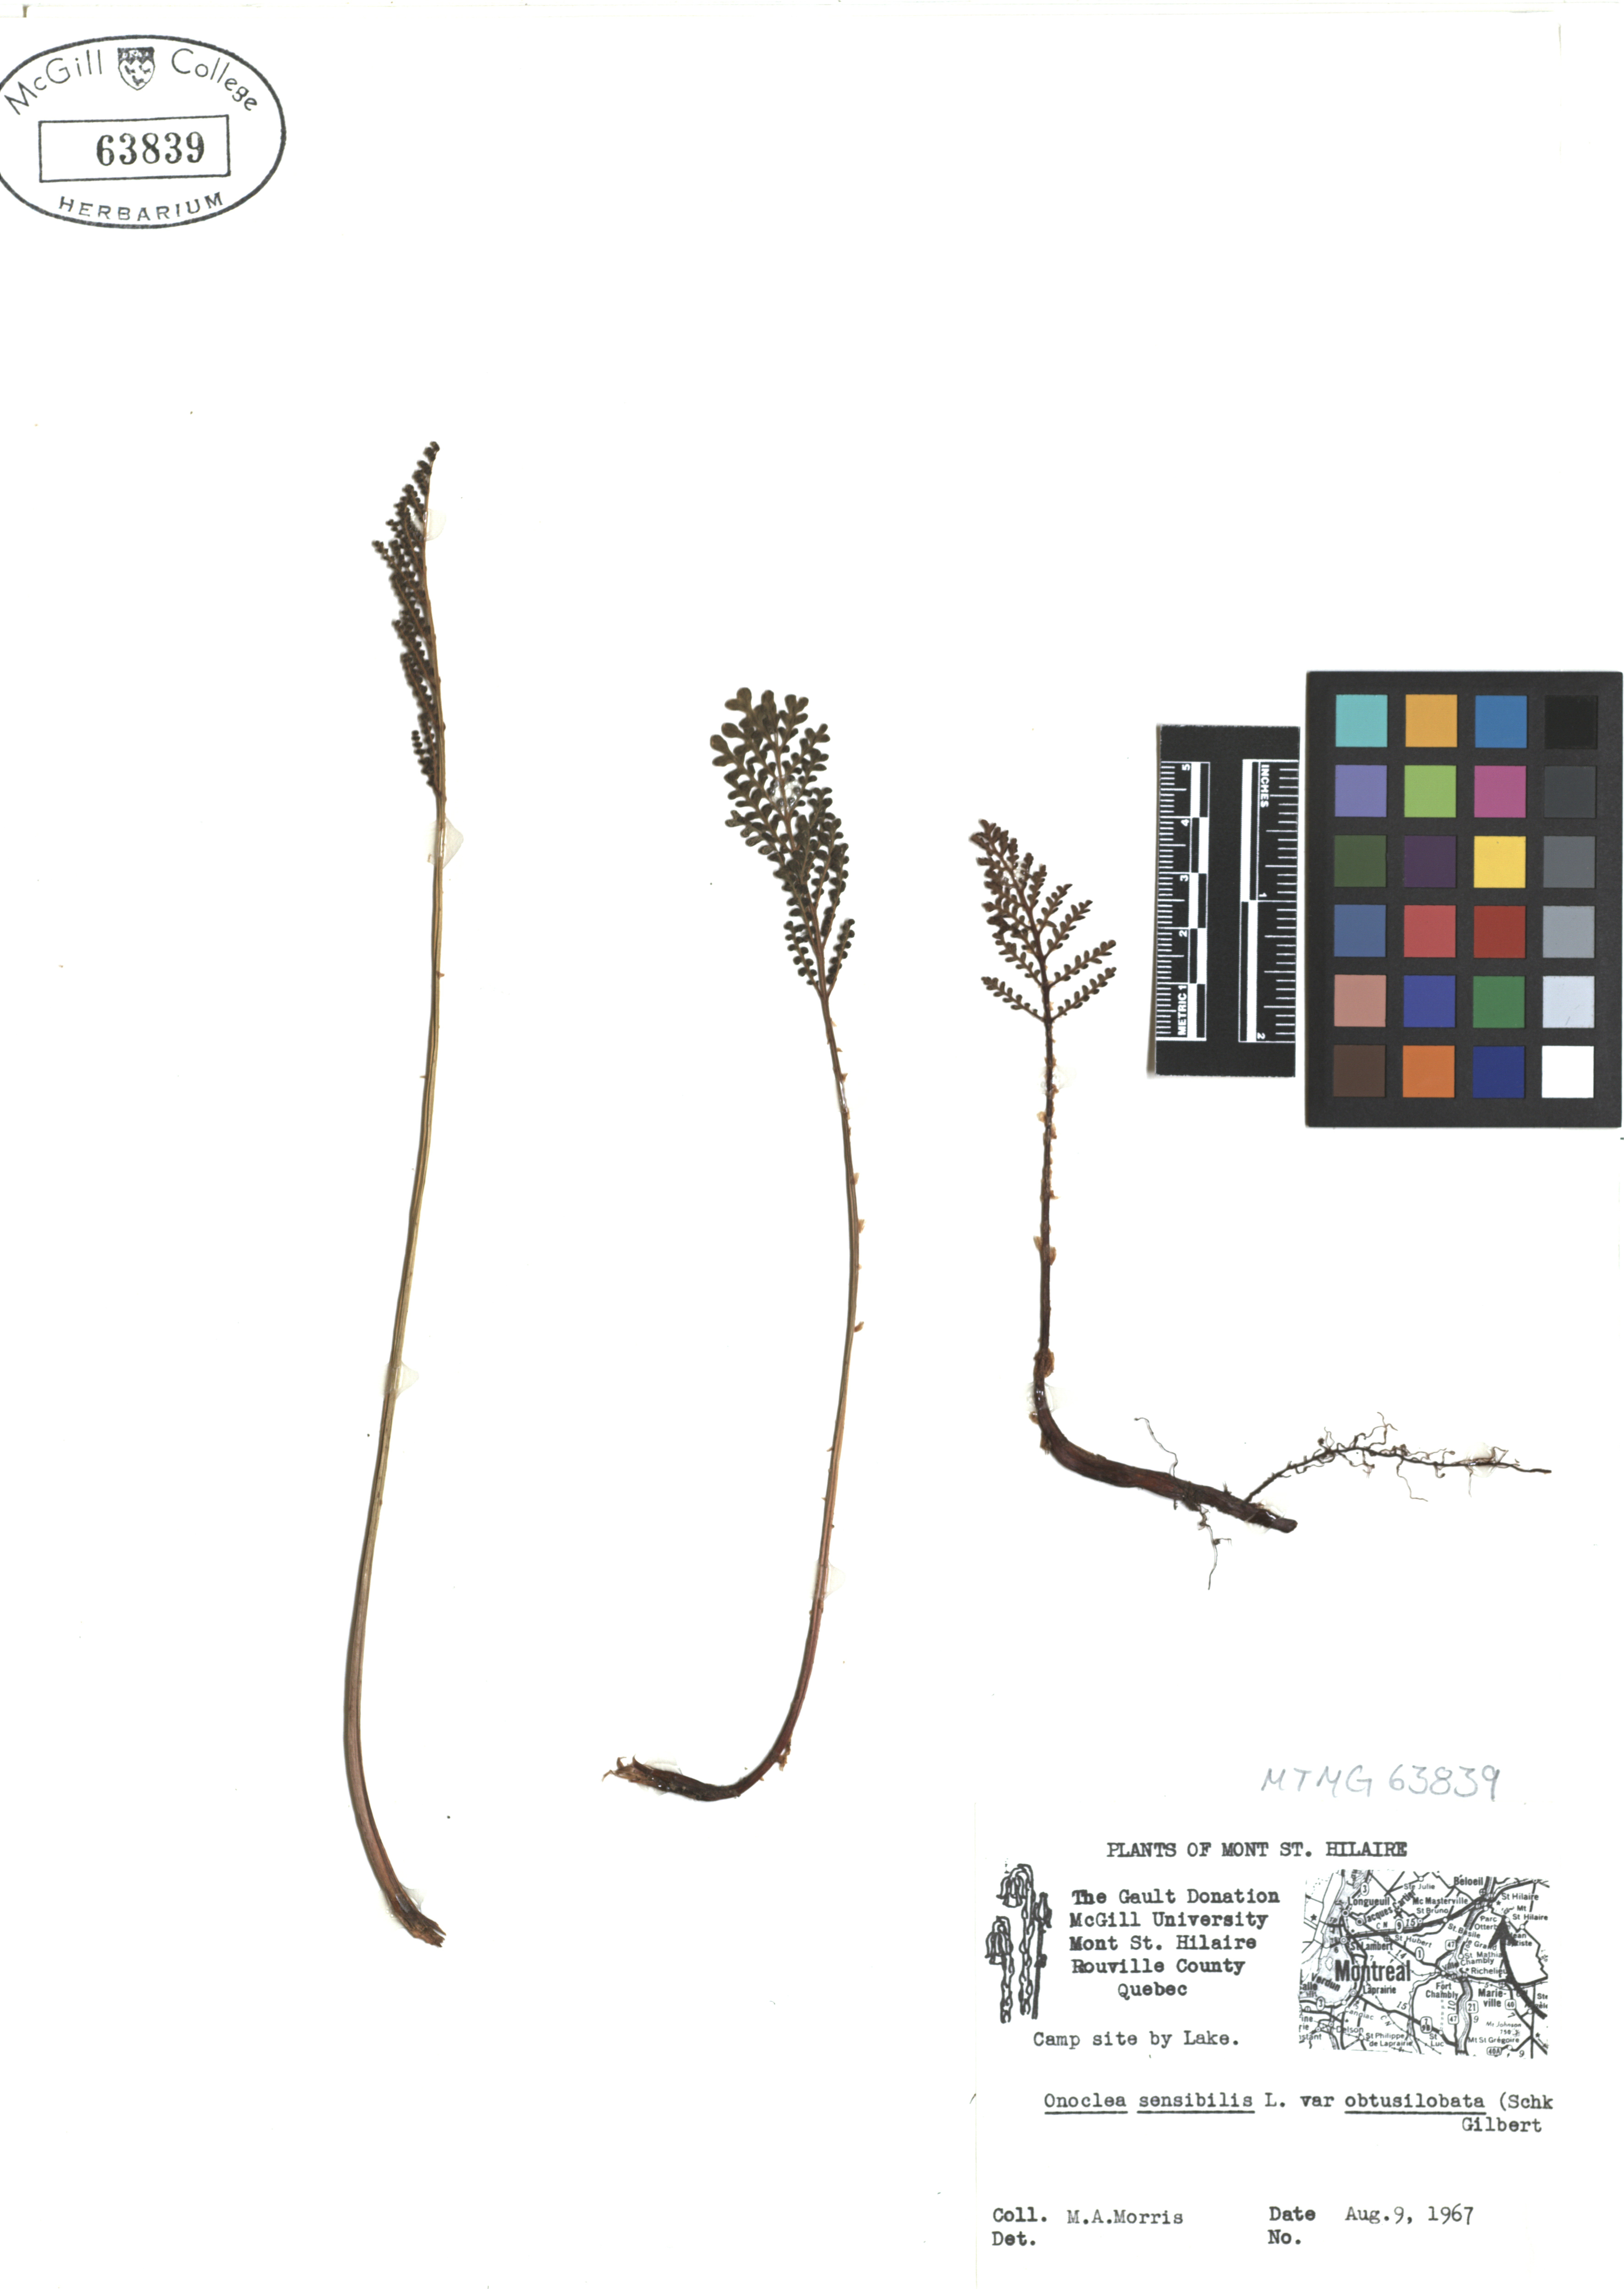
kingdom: Plantae
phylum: Tracheophyta
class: Polypodiopsida
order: Polypodiales
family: Onocleaceae
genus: Onoclea
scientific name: Onoclea sensibilis
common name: Sensitive fern
